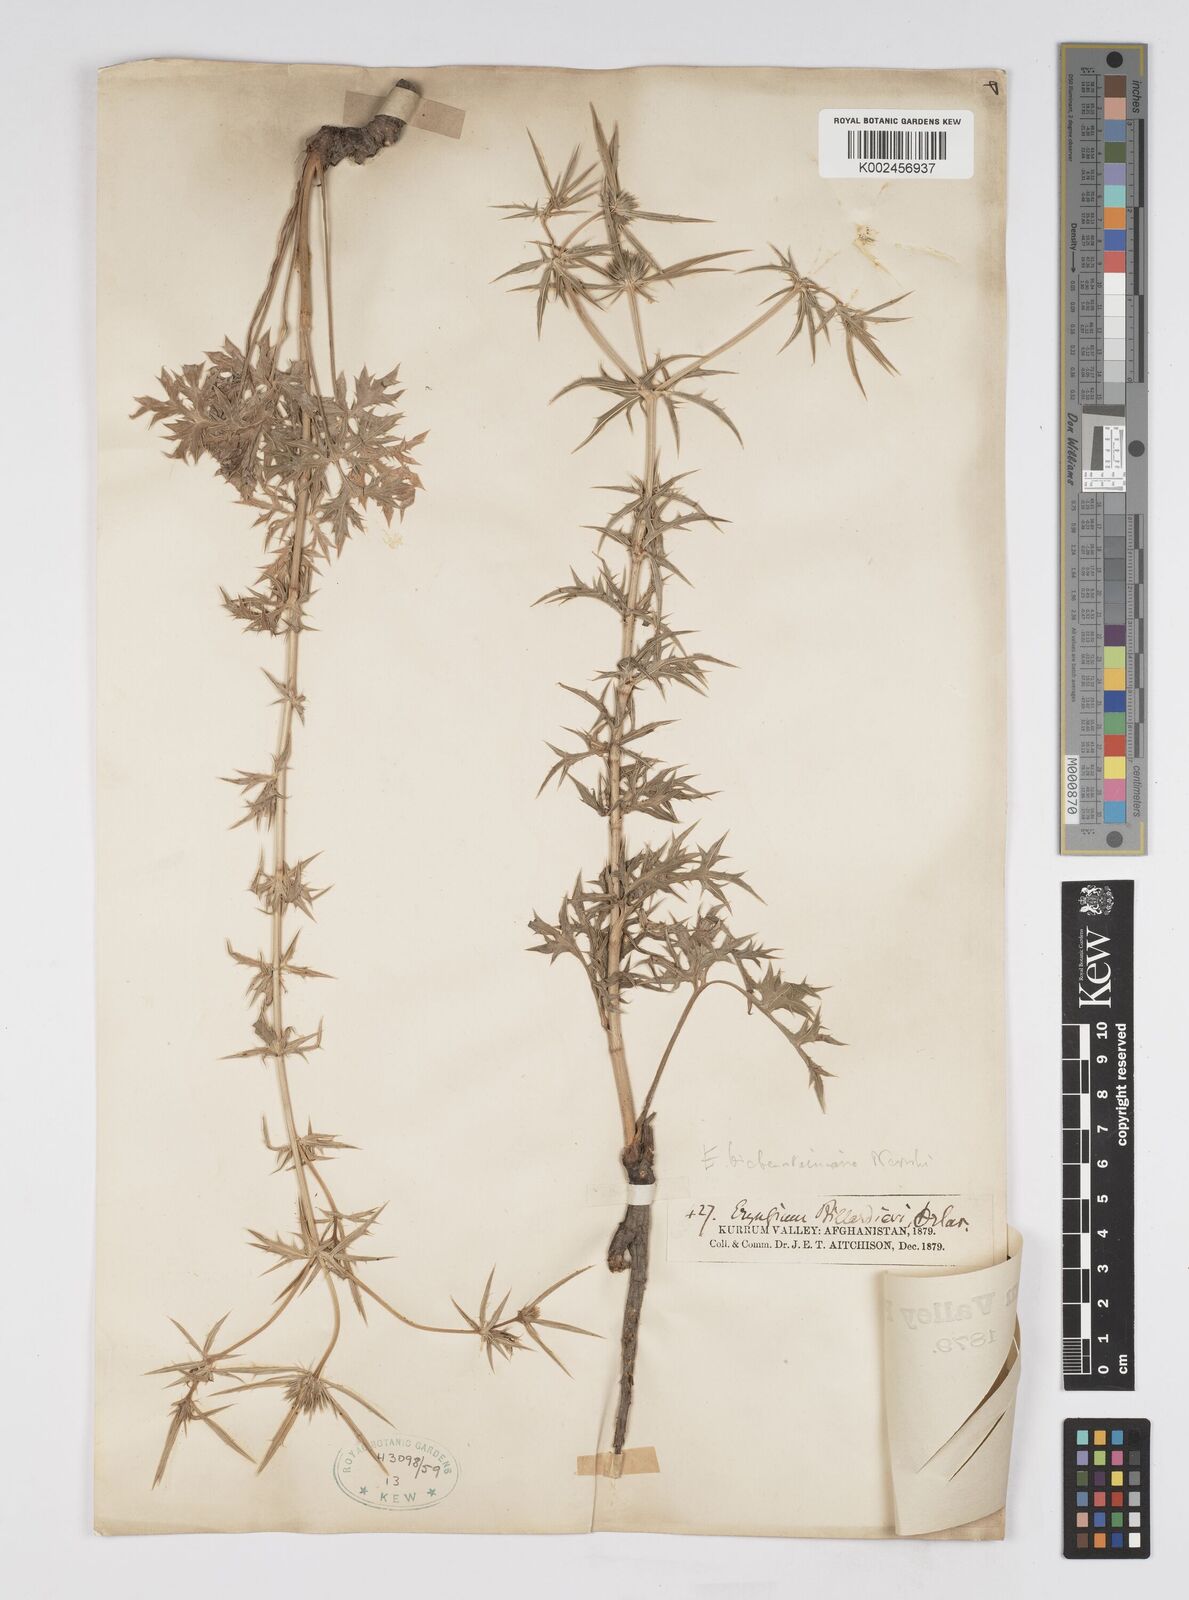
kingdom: Plantae
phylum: Tracheophyta
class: Magnoliopsida
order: Apiales
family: Apiaceae
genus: Eryngium
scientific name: Eryngium
